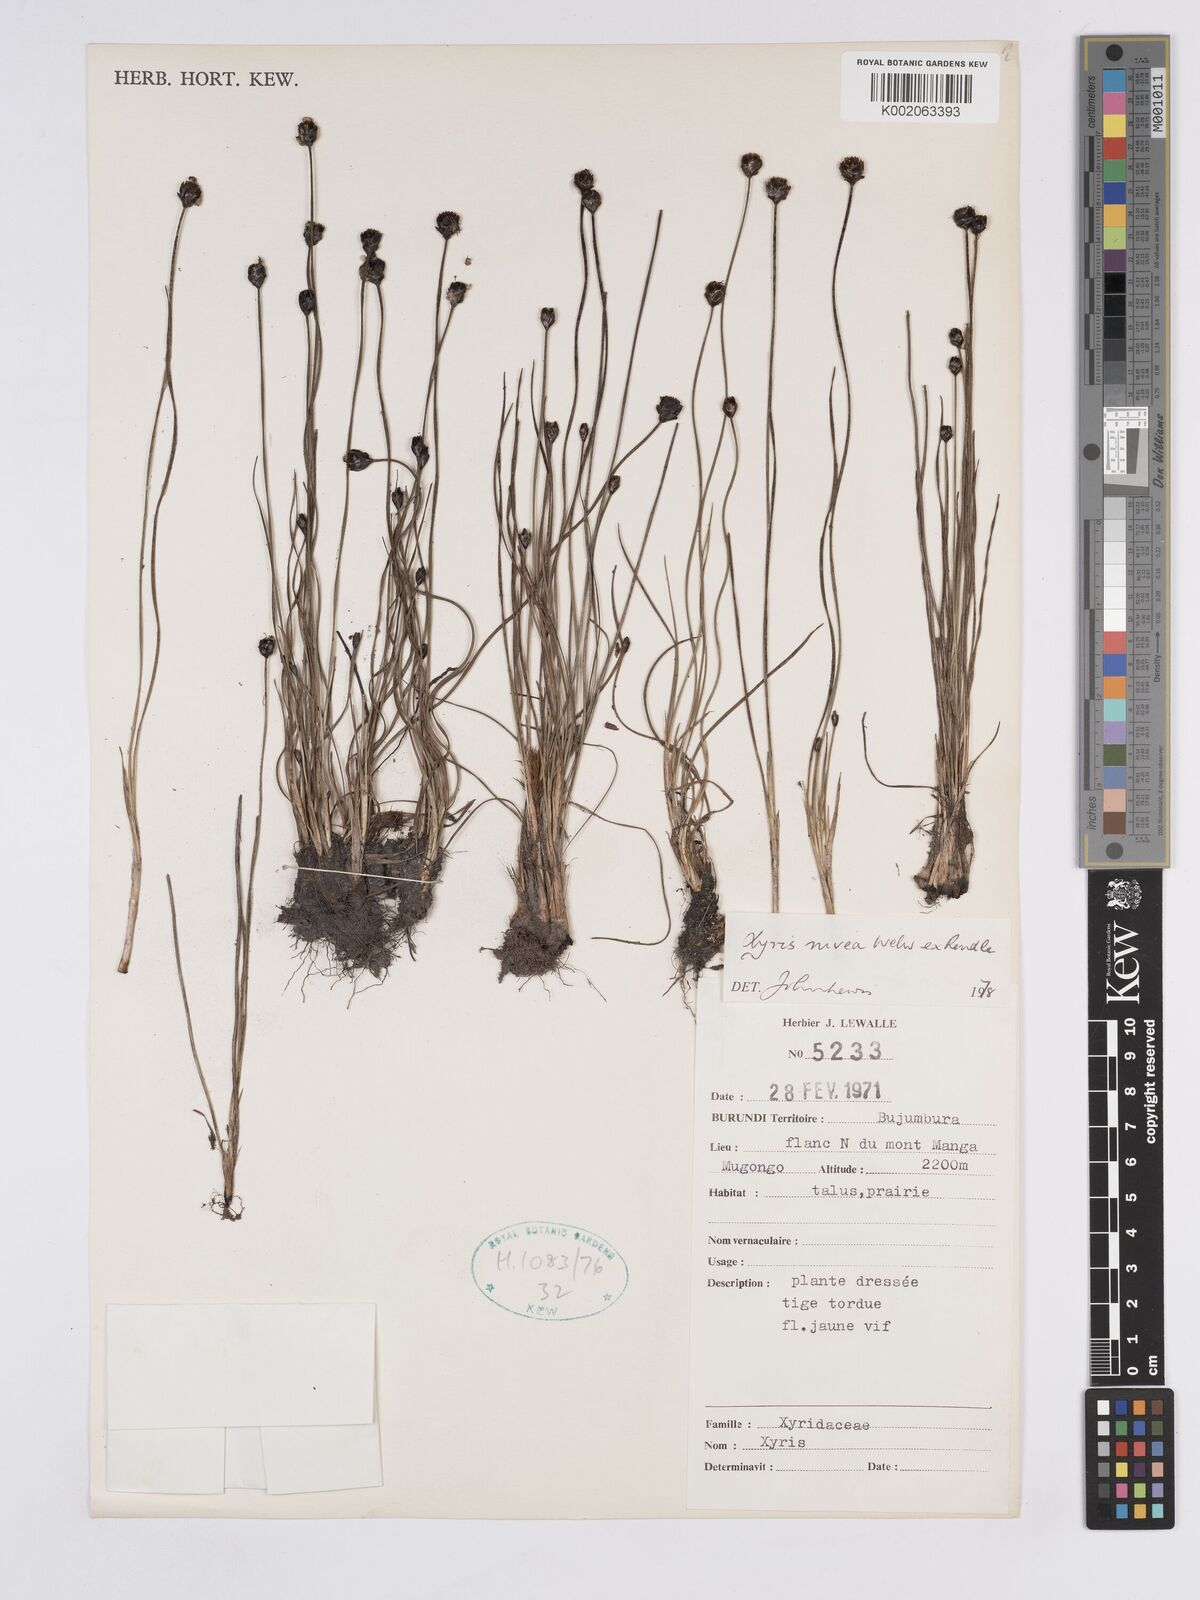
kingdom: Plantae
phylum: Tracheophyta
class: Liliopsida
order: Poales
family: Xyridaceae
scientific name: Xyridaceae
